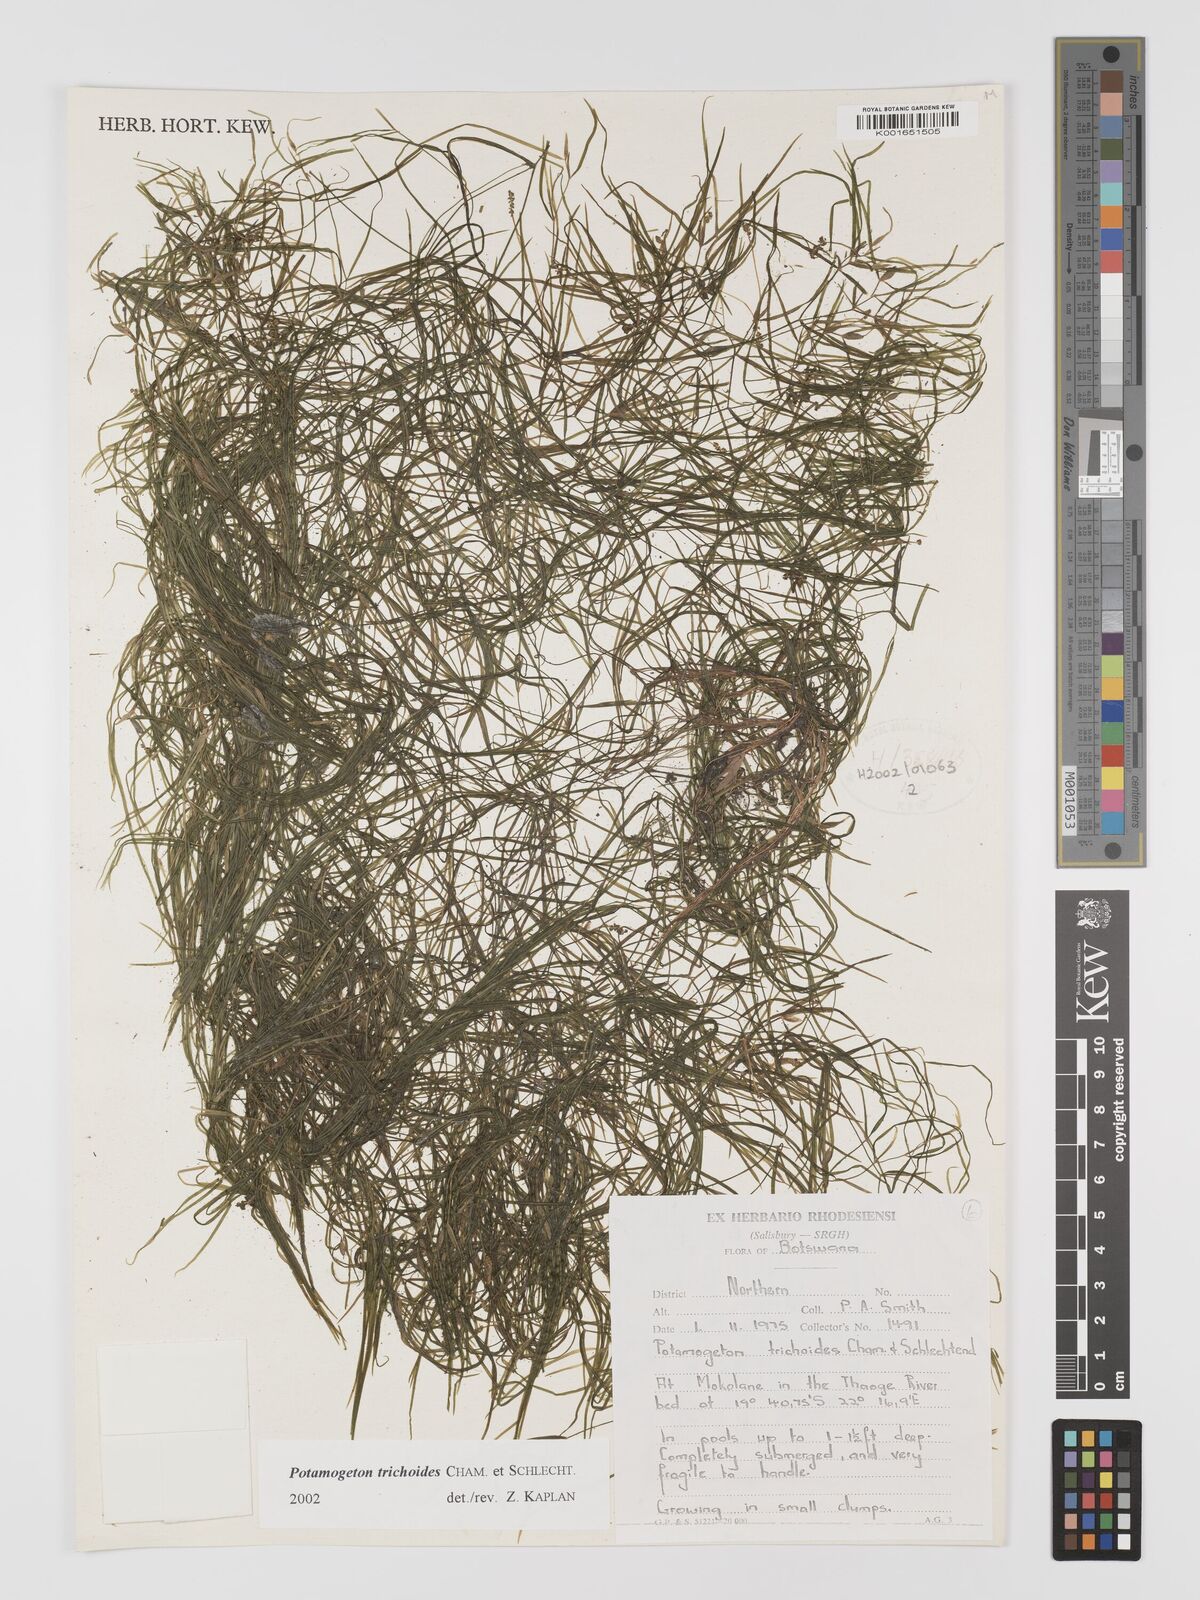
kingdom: Plantae
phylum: Tracheophyta
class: Liliopsida
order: Alismatales
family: Potamogetonaceae
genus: Potamogeton
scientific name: Potamogeton trichoides
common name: Hairlike pondweed
